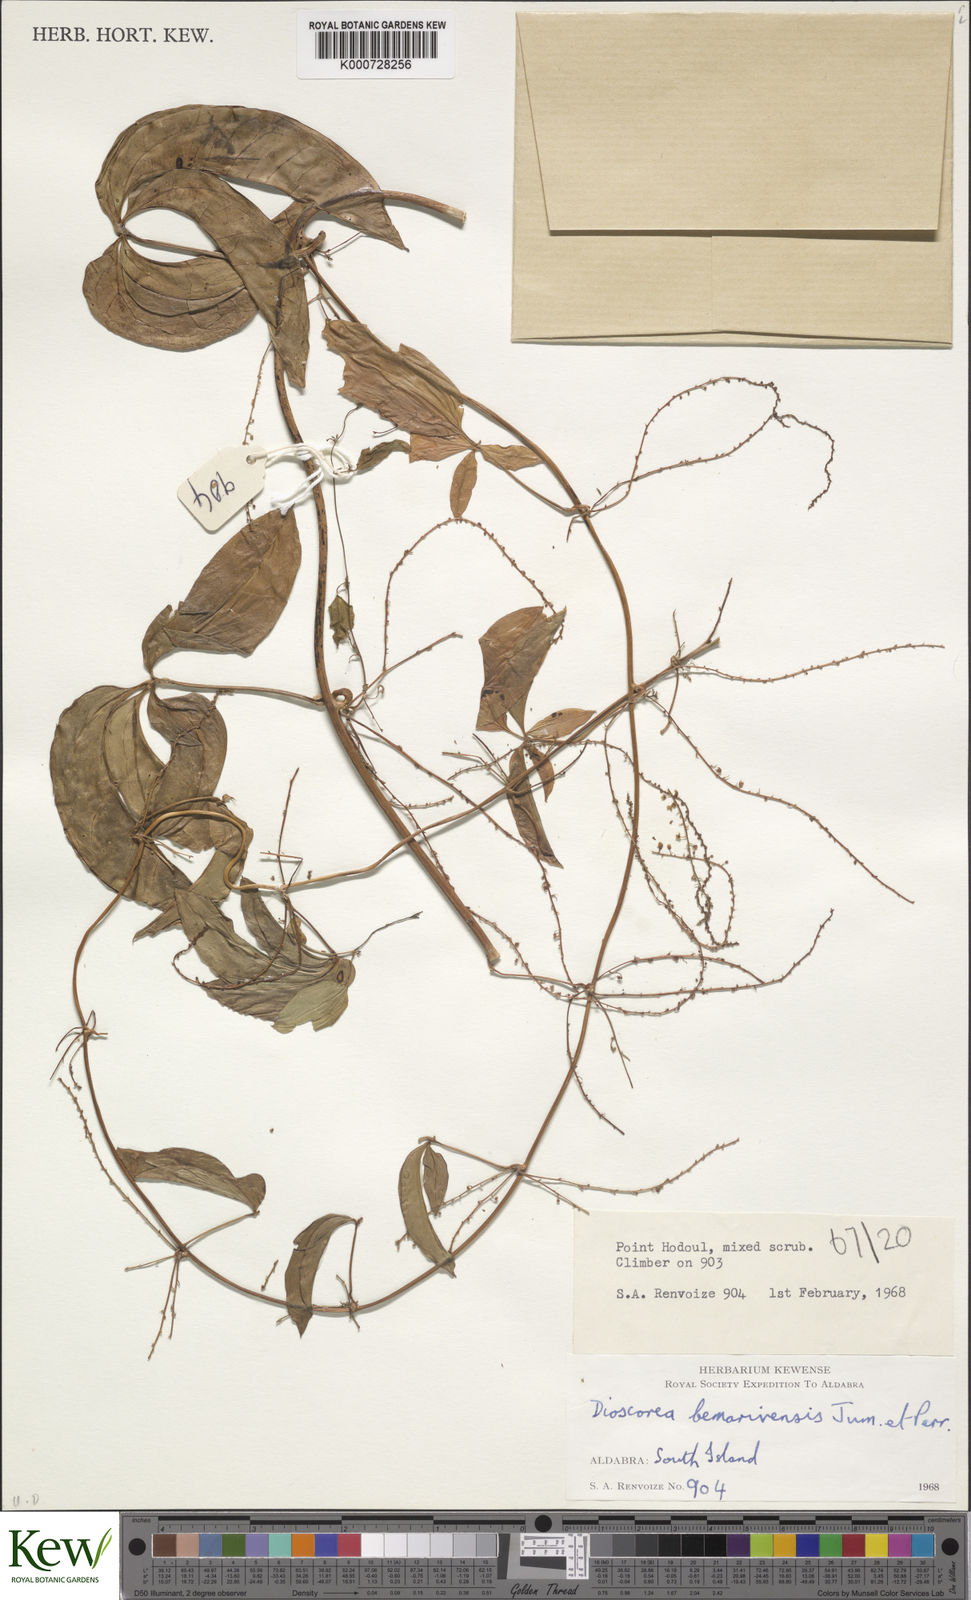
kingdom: Plantae
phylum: Tracheophyta
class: Liliopsida
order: Dioscoreales
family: Dioscoreaceae
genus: Dioscorea
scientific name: Dioscorea bemarivensis
